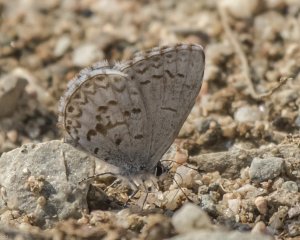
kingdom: Animalia
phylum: Arthropoda
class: Insecta
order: Lepidoptera
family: Lycaenidae
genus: Celastrina
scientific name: Celastrina lucia
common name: Northern Spring Azure
